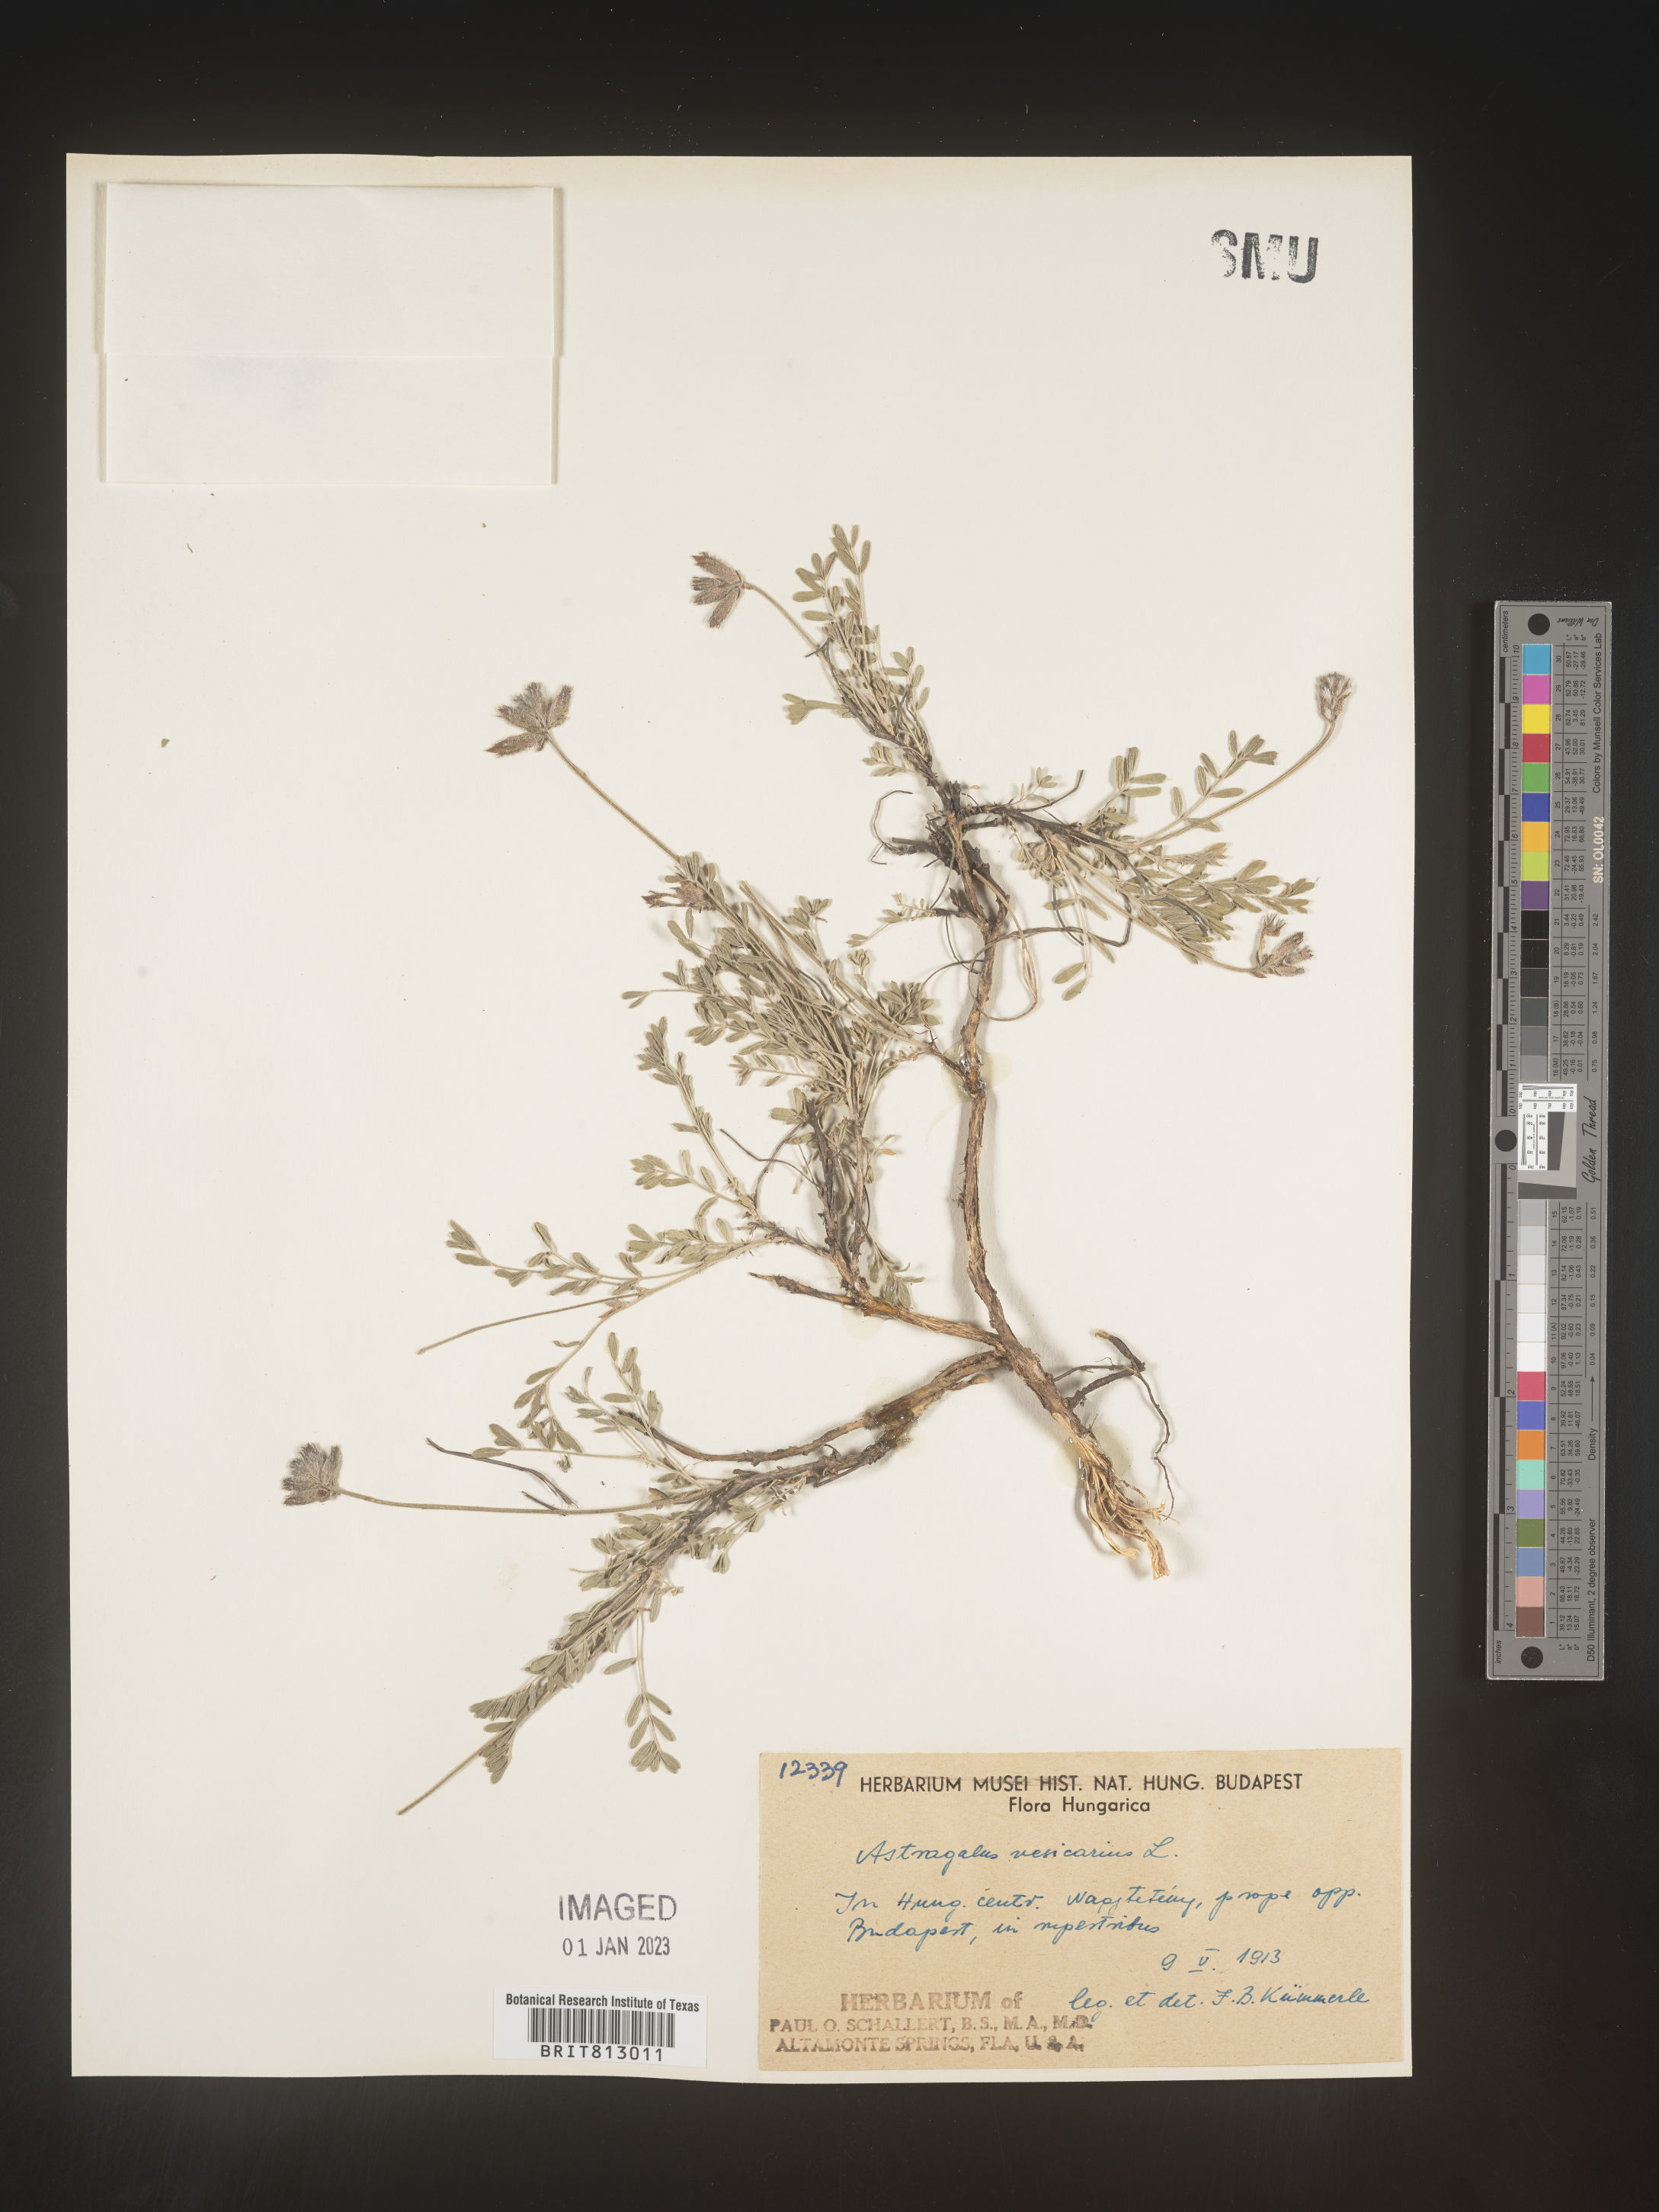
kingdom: Plantae
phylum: Tracheophyta
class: Magnoliopsida
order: Fabales
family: Fabaceae
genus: Astragalus
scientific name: Astragalus
